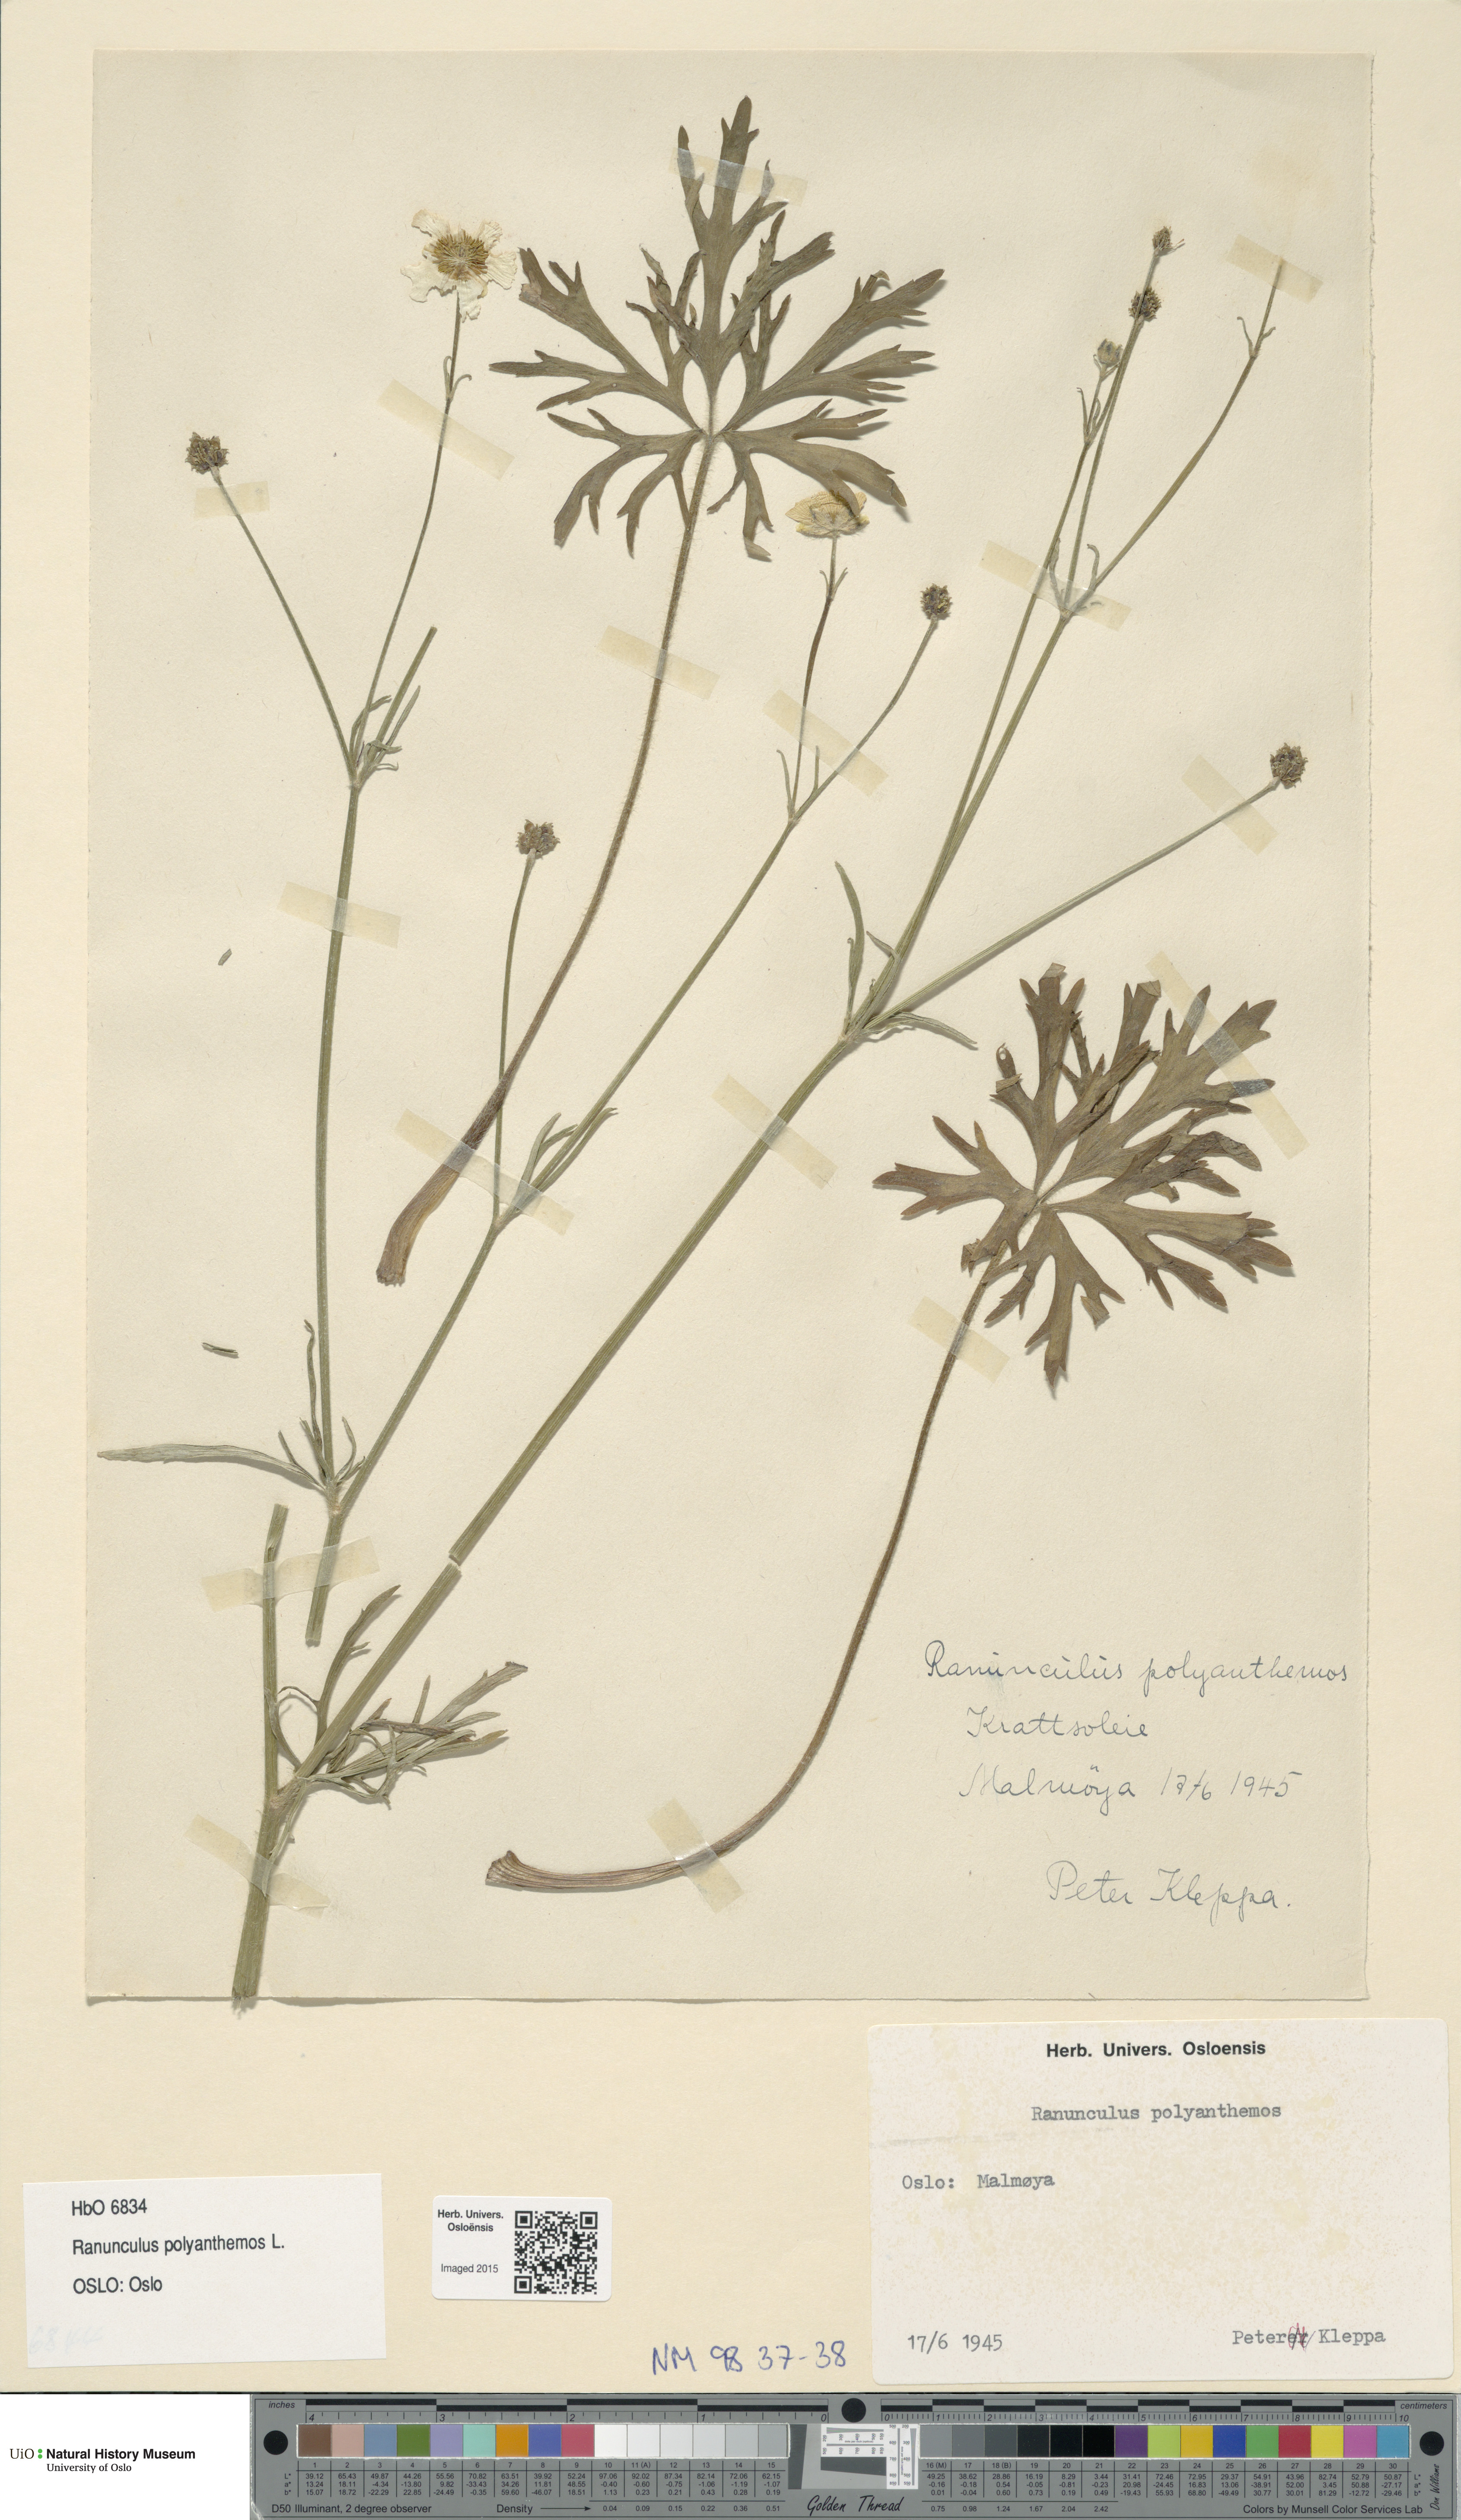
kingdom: Plantae
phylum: Tracheophyta
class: Magnoliopsida
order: Ranunculales
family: Ranunculaceae
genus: Ranunculus
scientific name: Ranunculus polyanthemos
